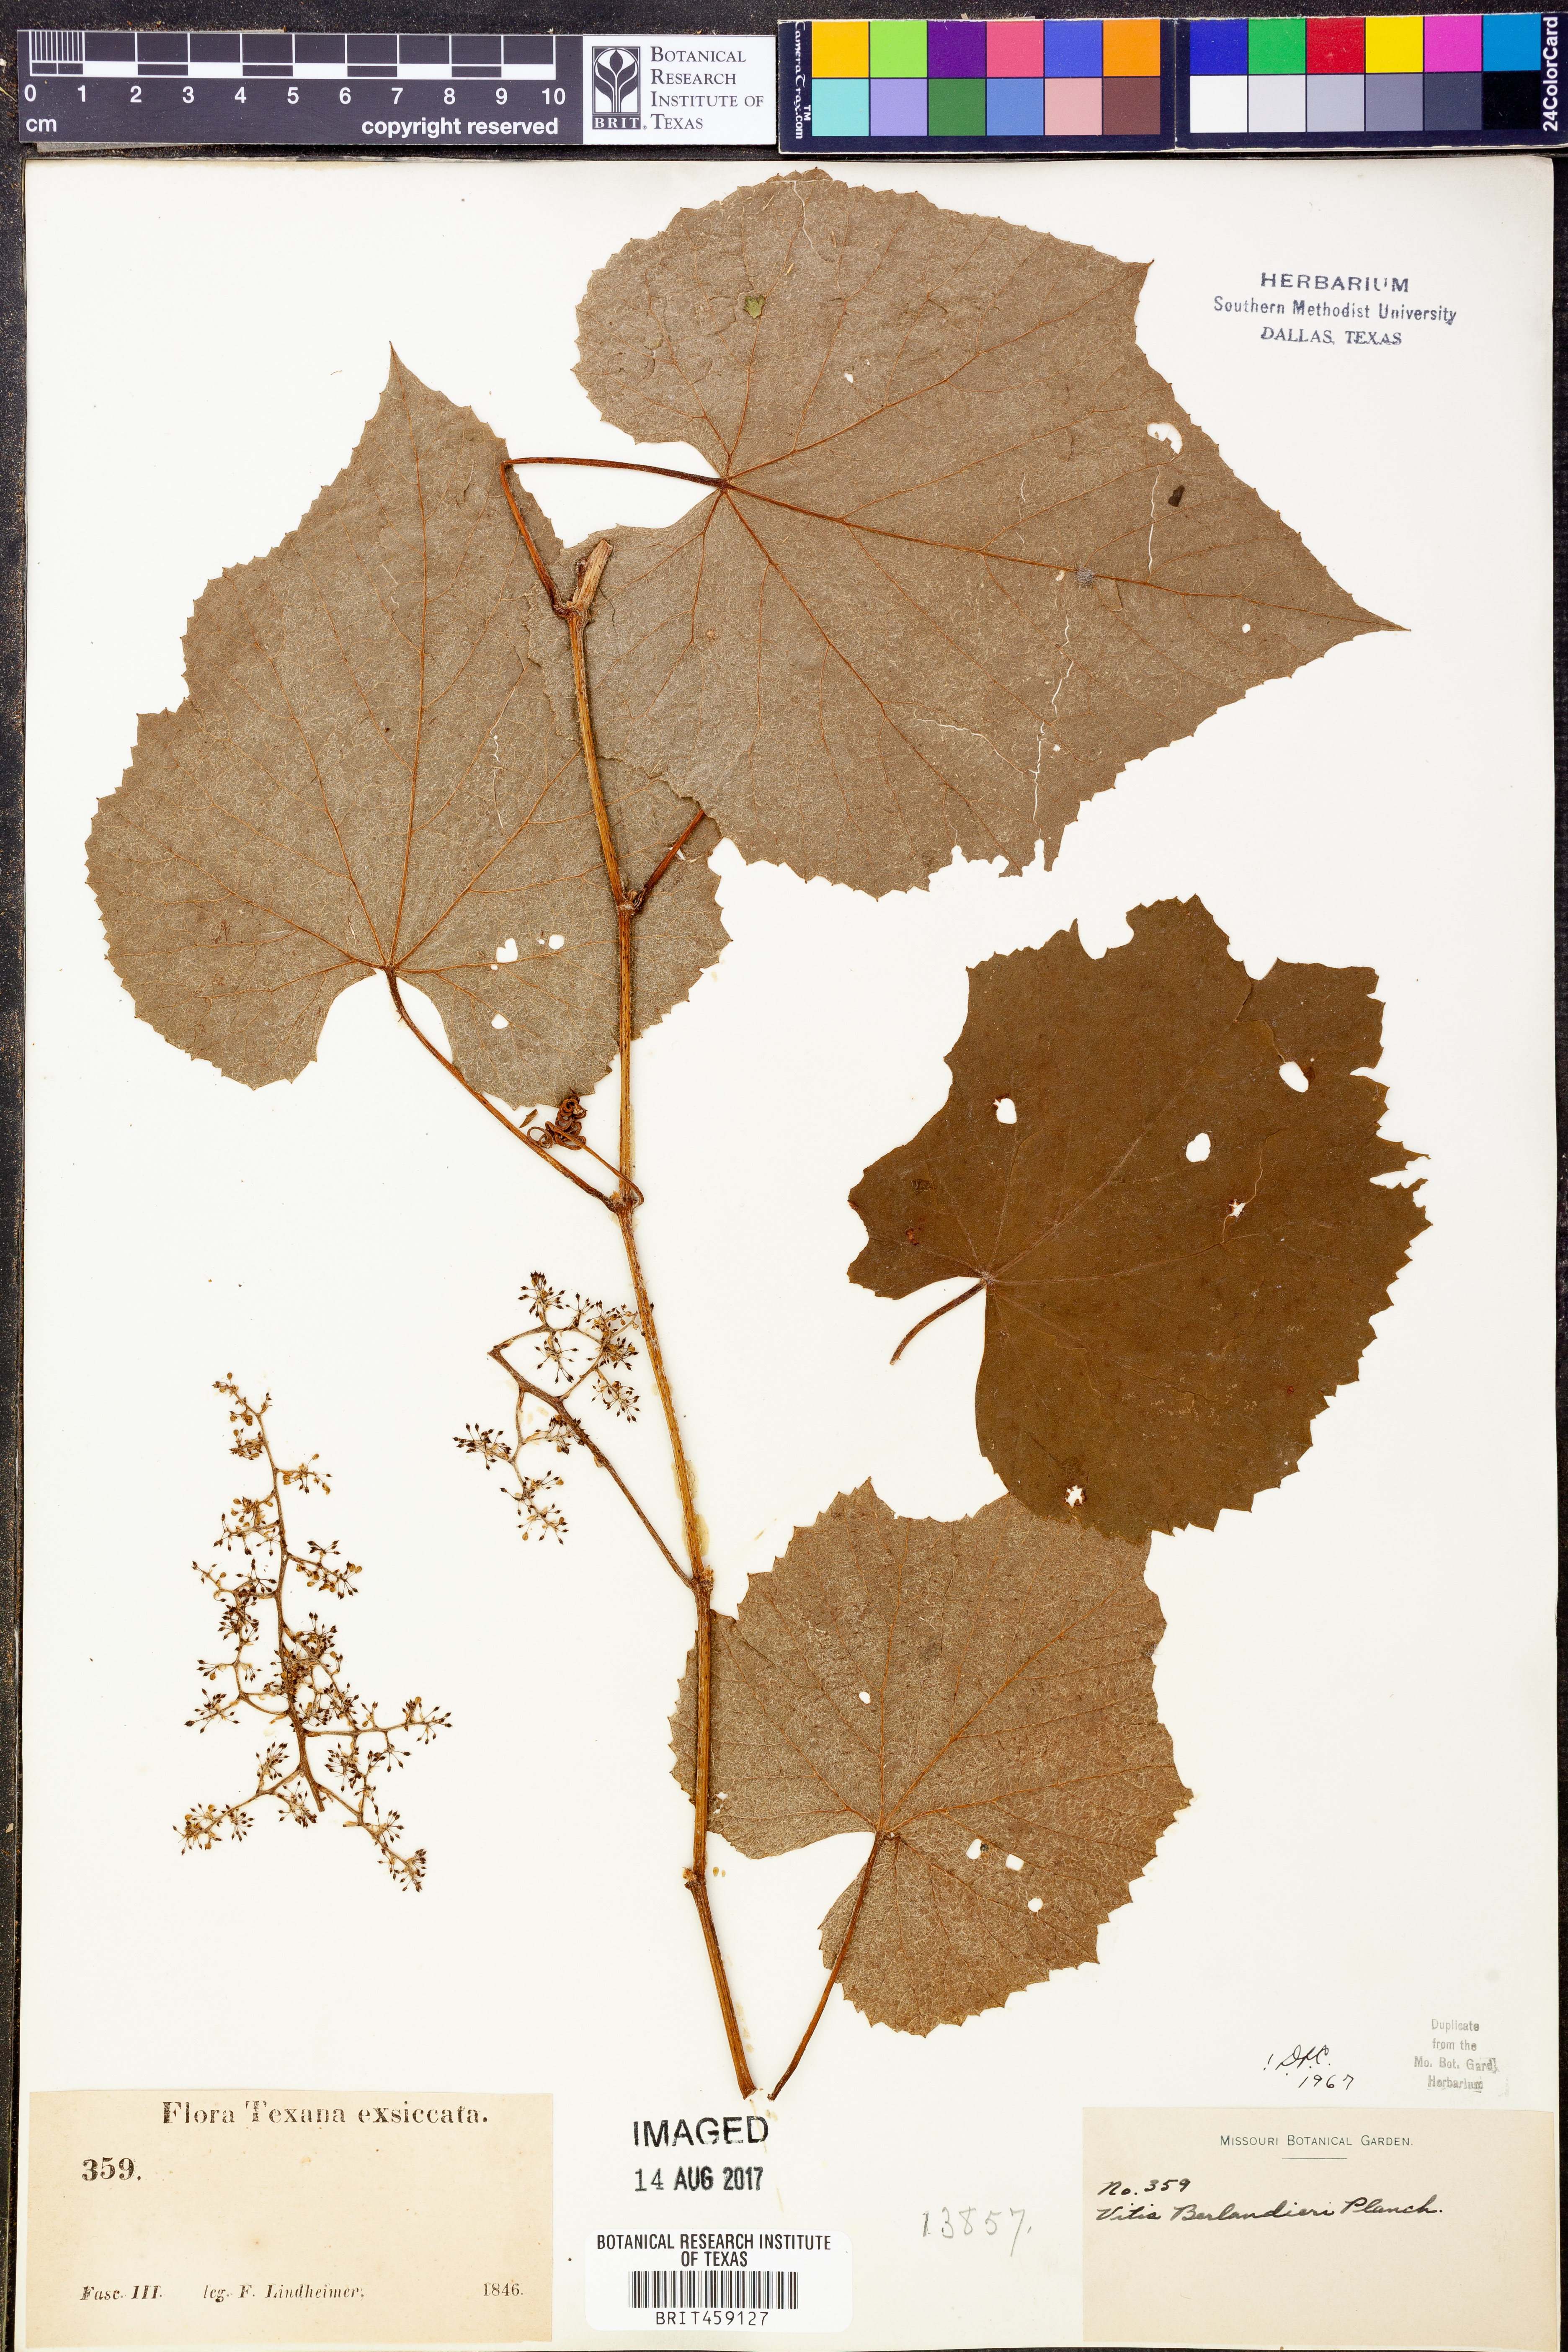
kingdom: Plantae
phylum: Tracheophyta
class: Magnoliopsida
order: Vitales
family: Vitaceae
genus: Vitis
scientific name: Vitis cinerea
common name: Ashy grape
